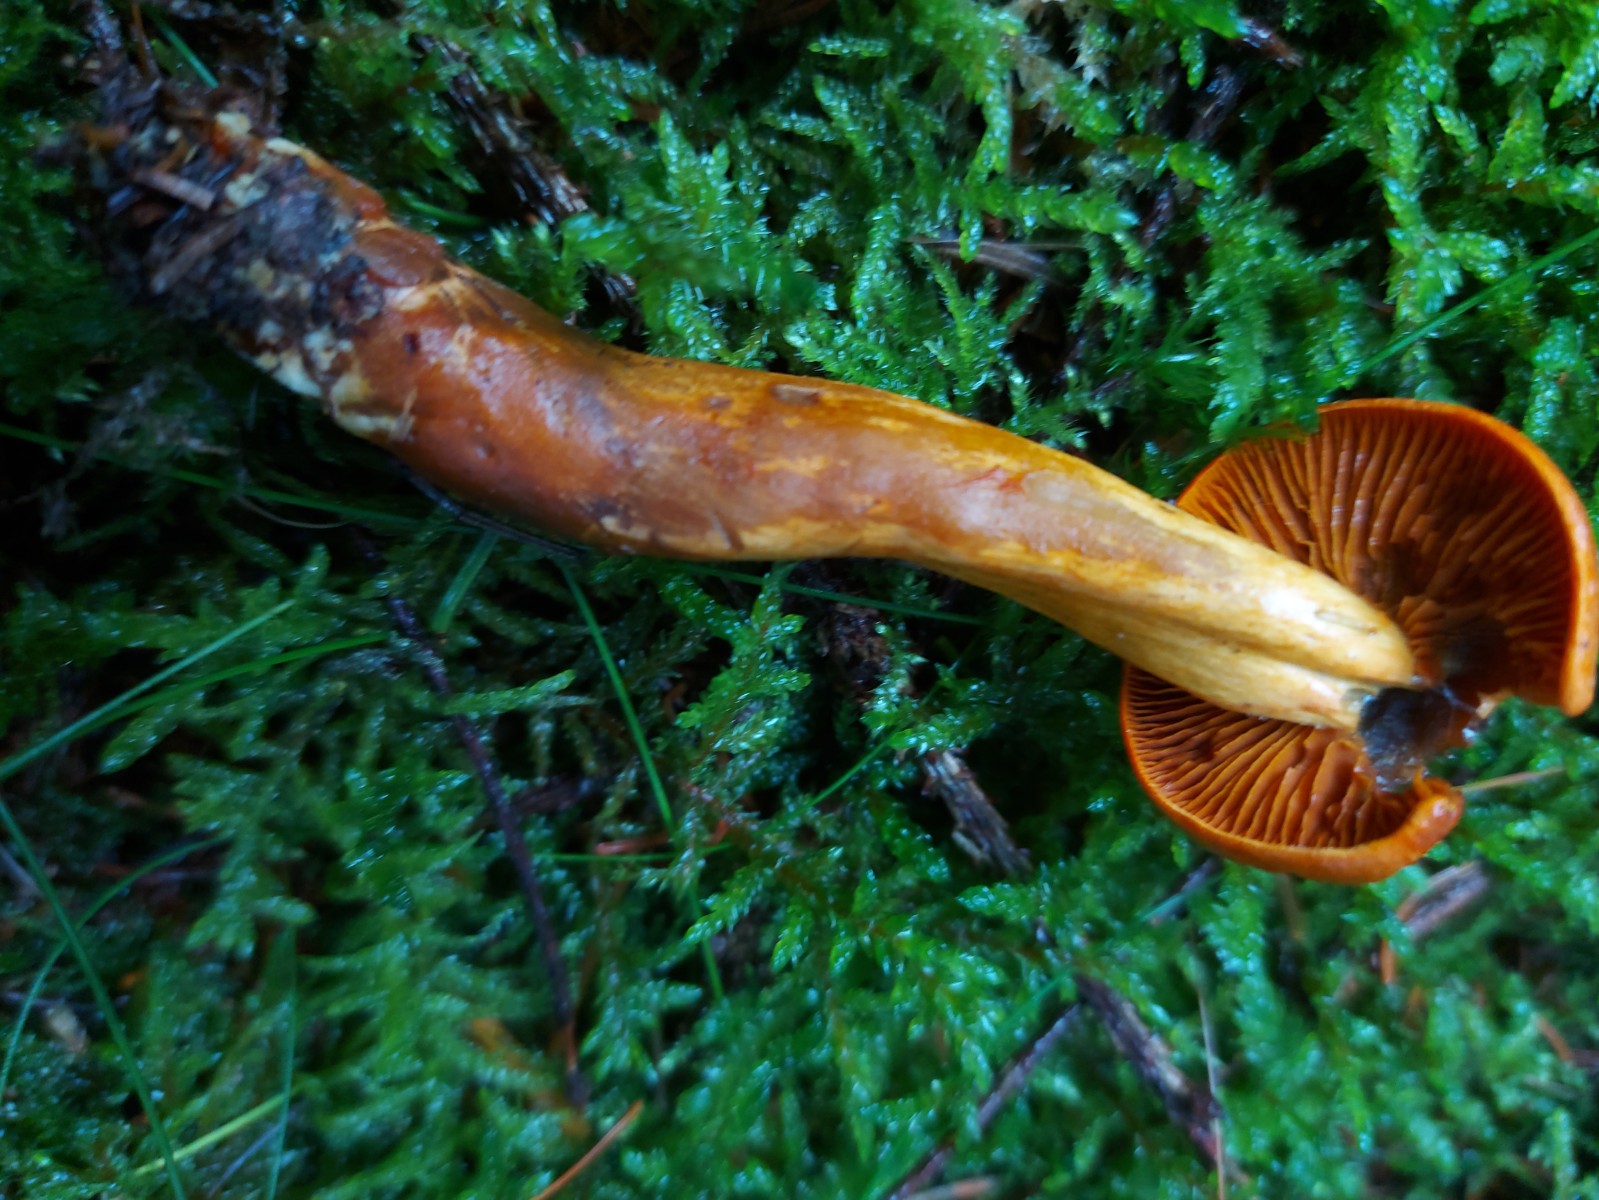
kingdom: Fungi
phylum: Basidiomycota
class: Agaricomycetes
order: Agaricales
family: Cortinariaceae
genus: Cortinarius
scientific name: Cortinarius malicorius
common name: grønkødet slørhat
